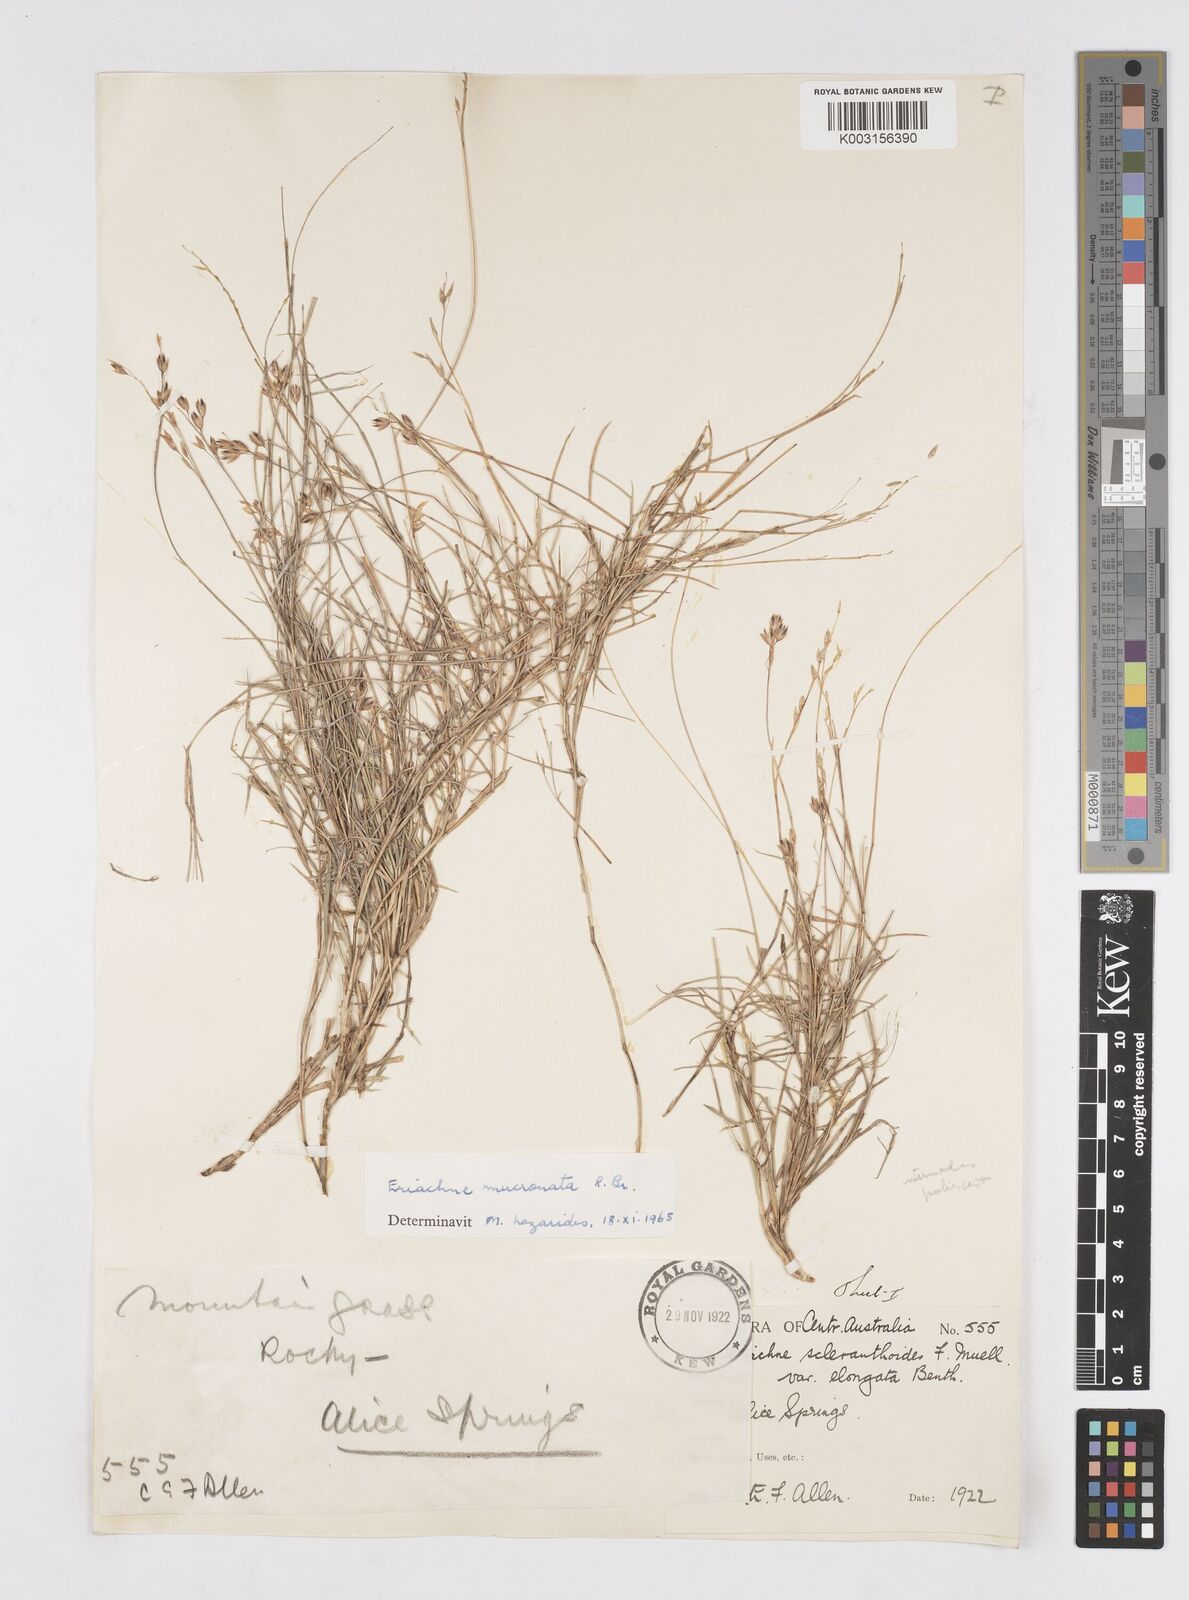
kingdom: Plantae
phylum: Tracheophyta
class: Liliopsida
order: Poales
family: Poaceae
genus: Eriachne
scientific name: Eriachne mucronata
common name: Mountain wanderrie grass
